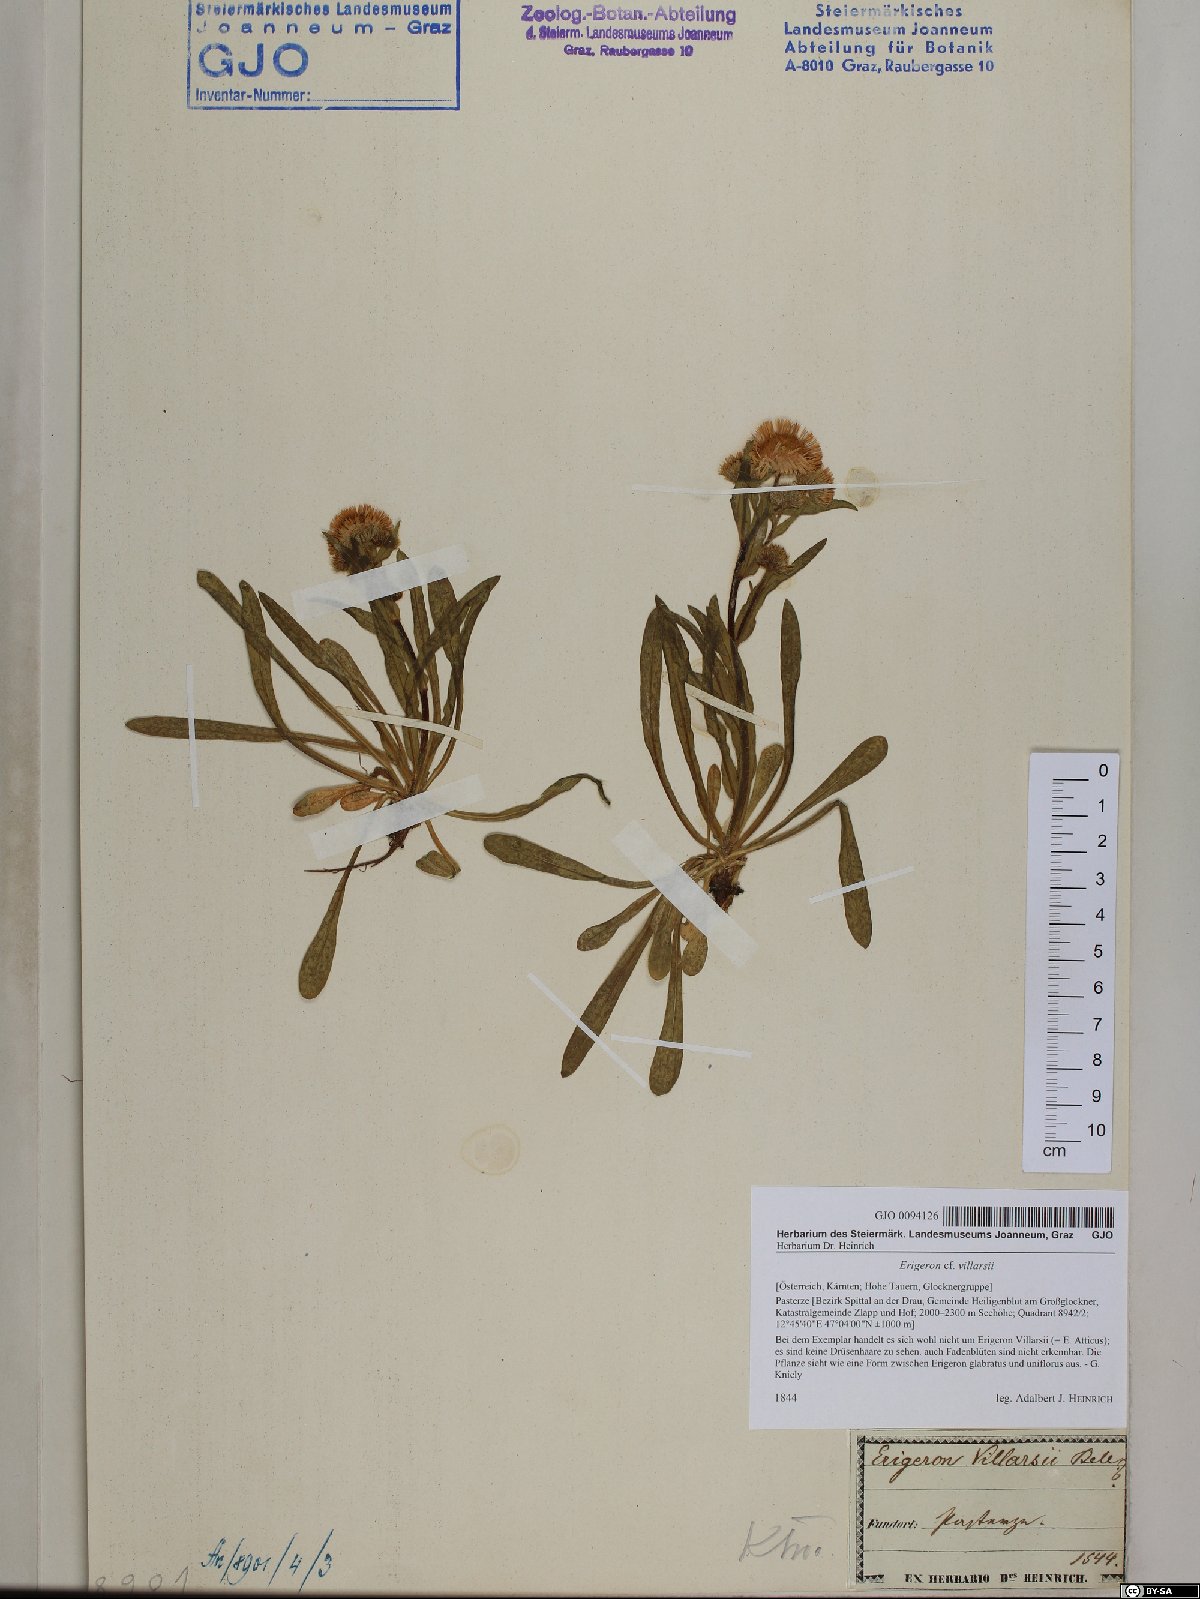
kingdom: Plantae
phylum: Tracheophyta
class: Magnoliopsida
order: Asterales
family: Asteraceae
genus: Erigeron
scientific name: Erigeron atticus
